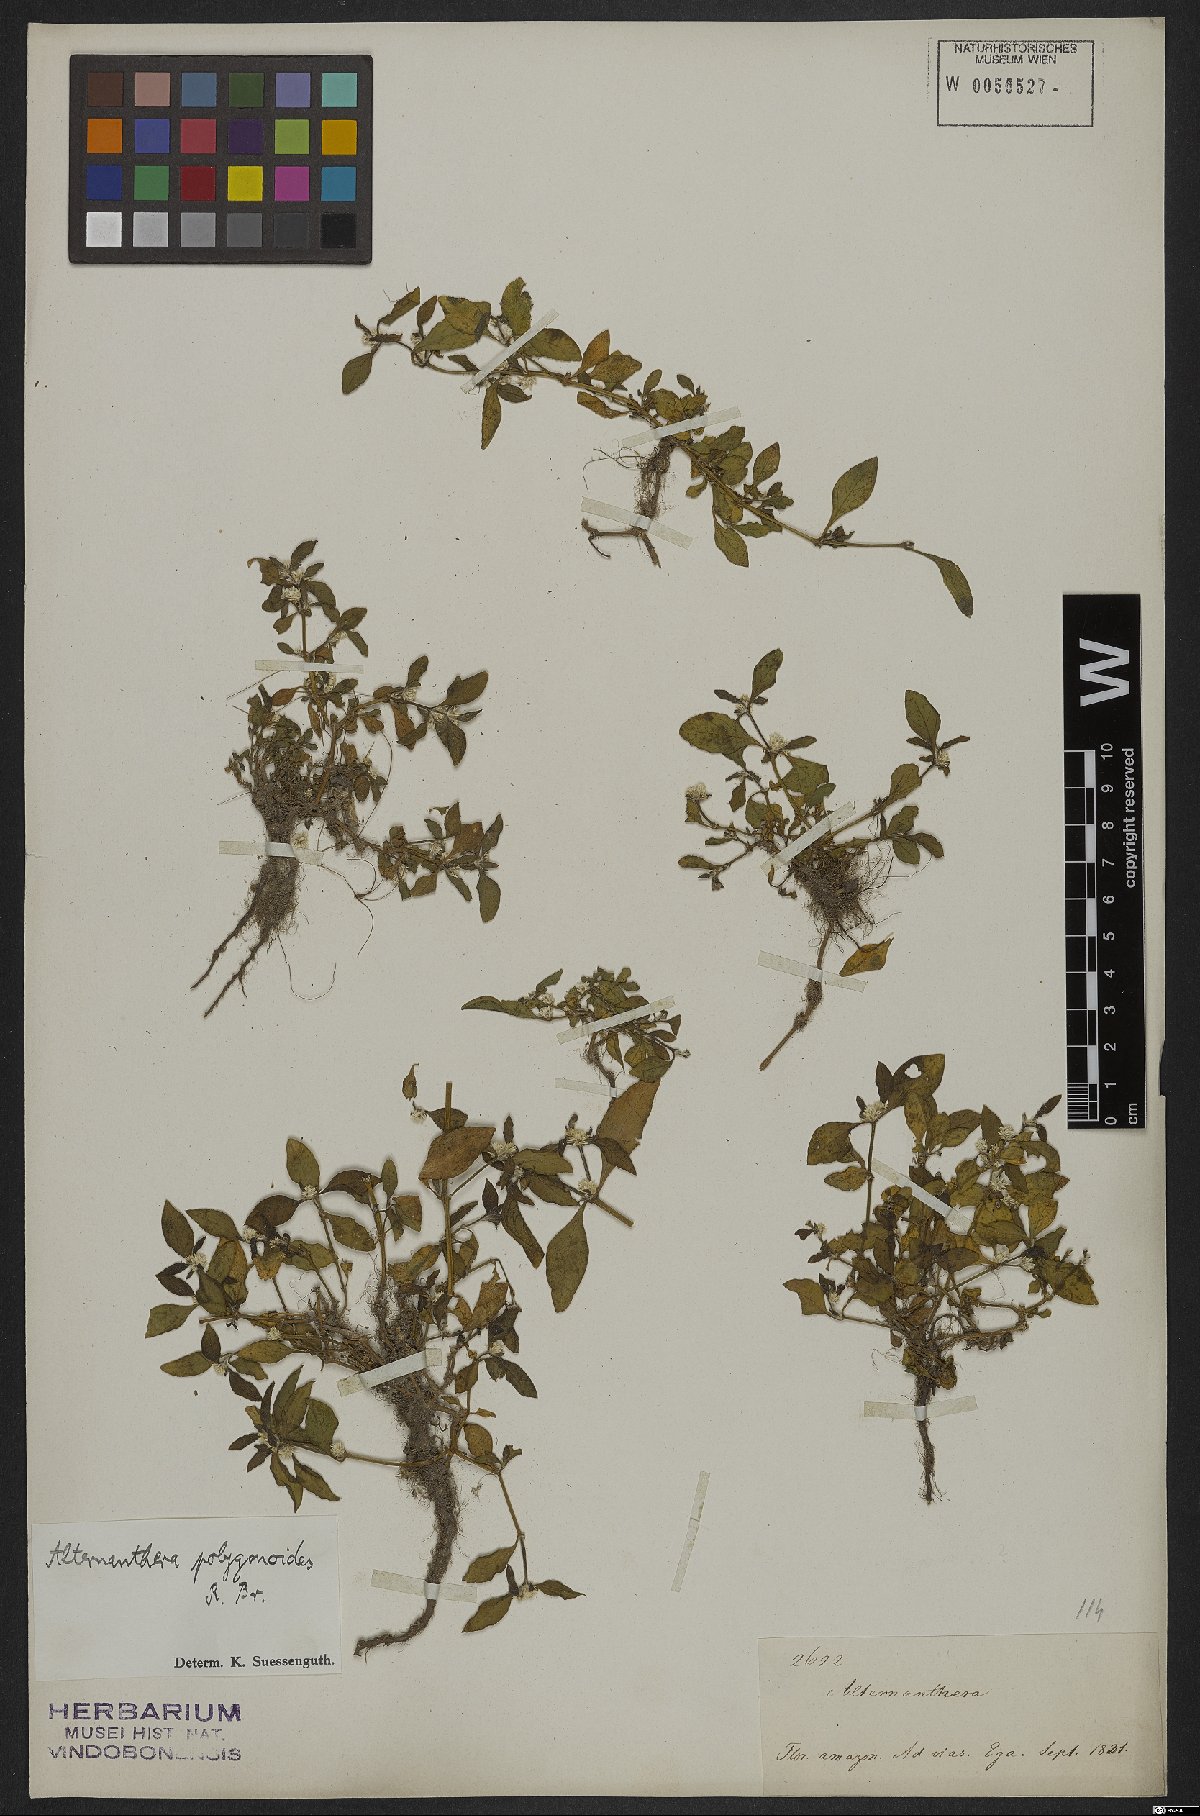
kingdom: Plantae
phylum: Tracheophyta
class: Magnoliopsida
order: Caryophyllales
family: Amaranthaceae
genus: Alternanthera
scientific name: Alternanthera sessilis
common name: Sessile joyweed
